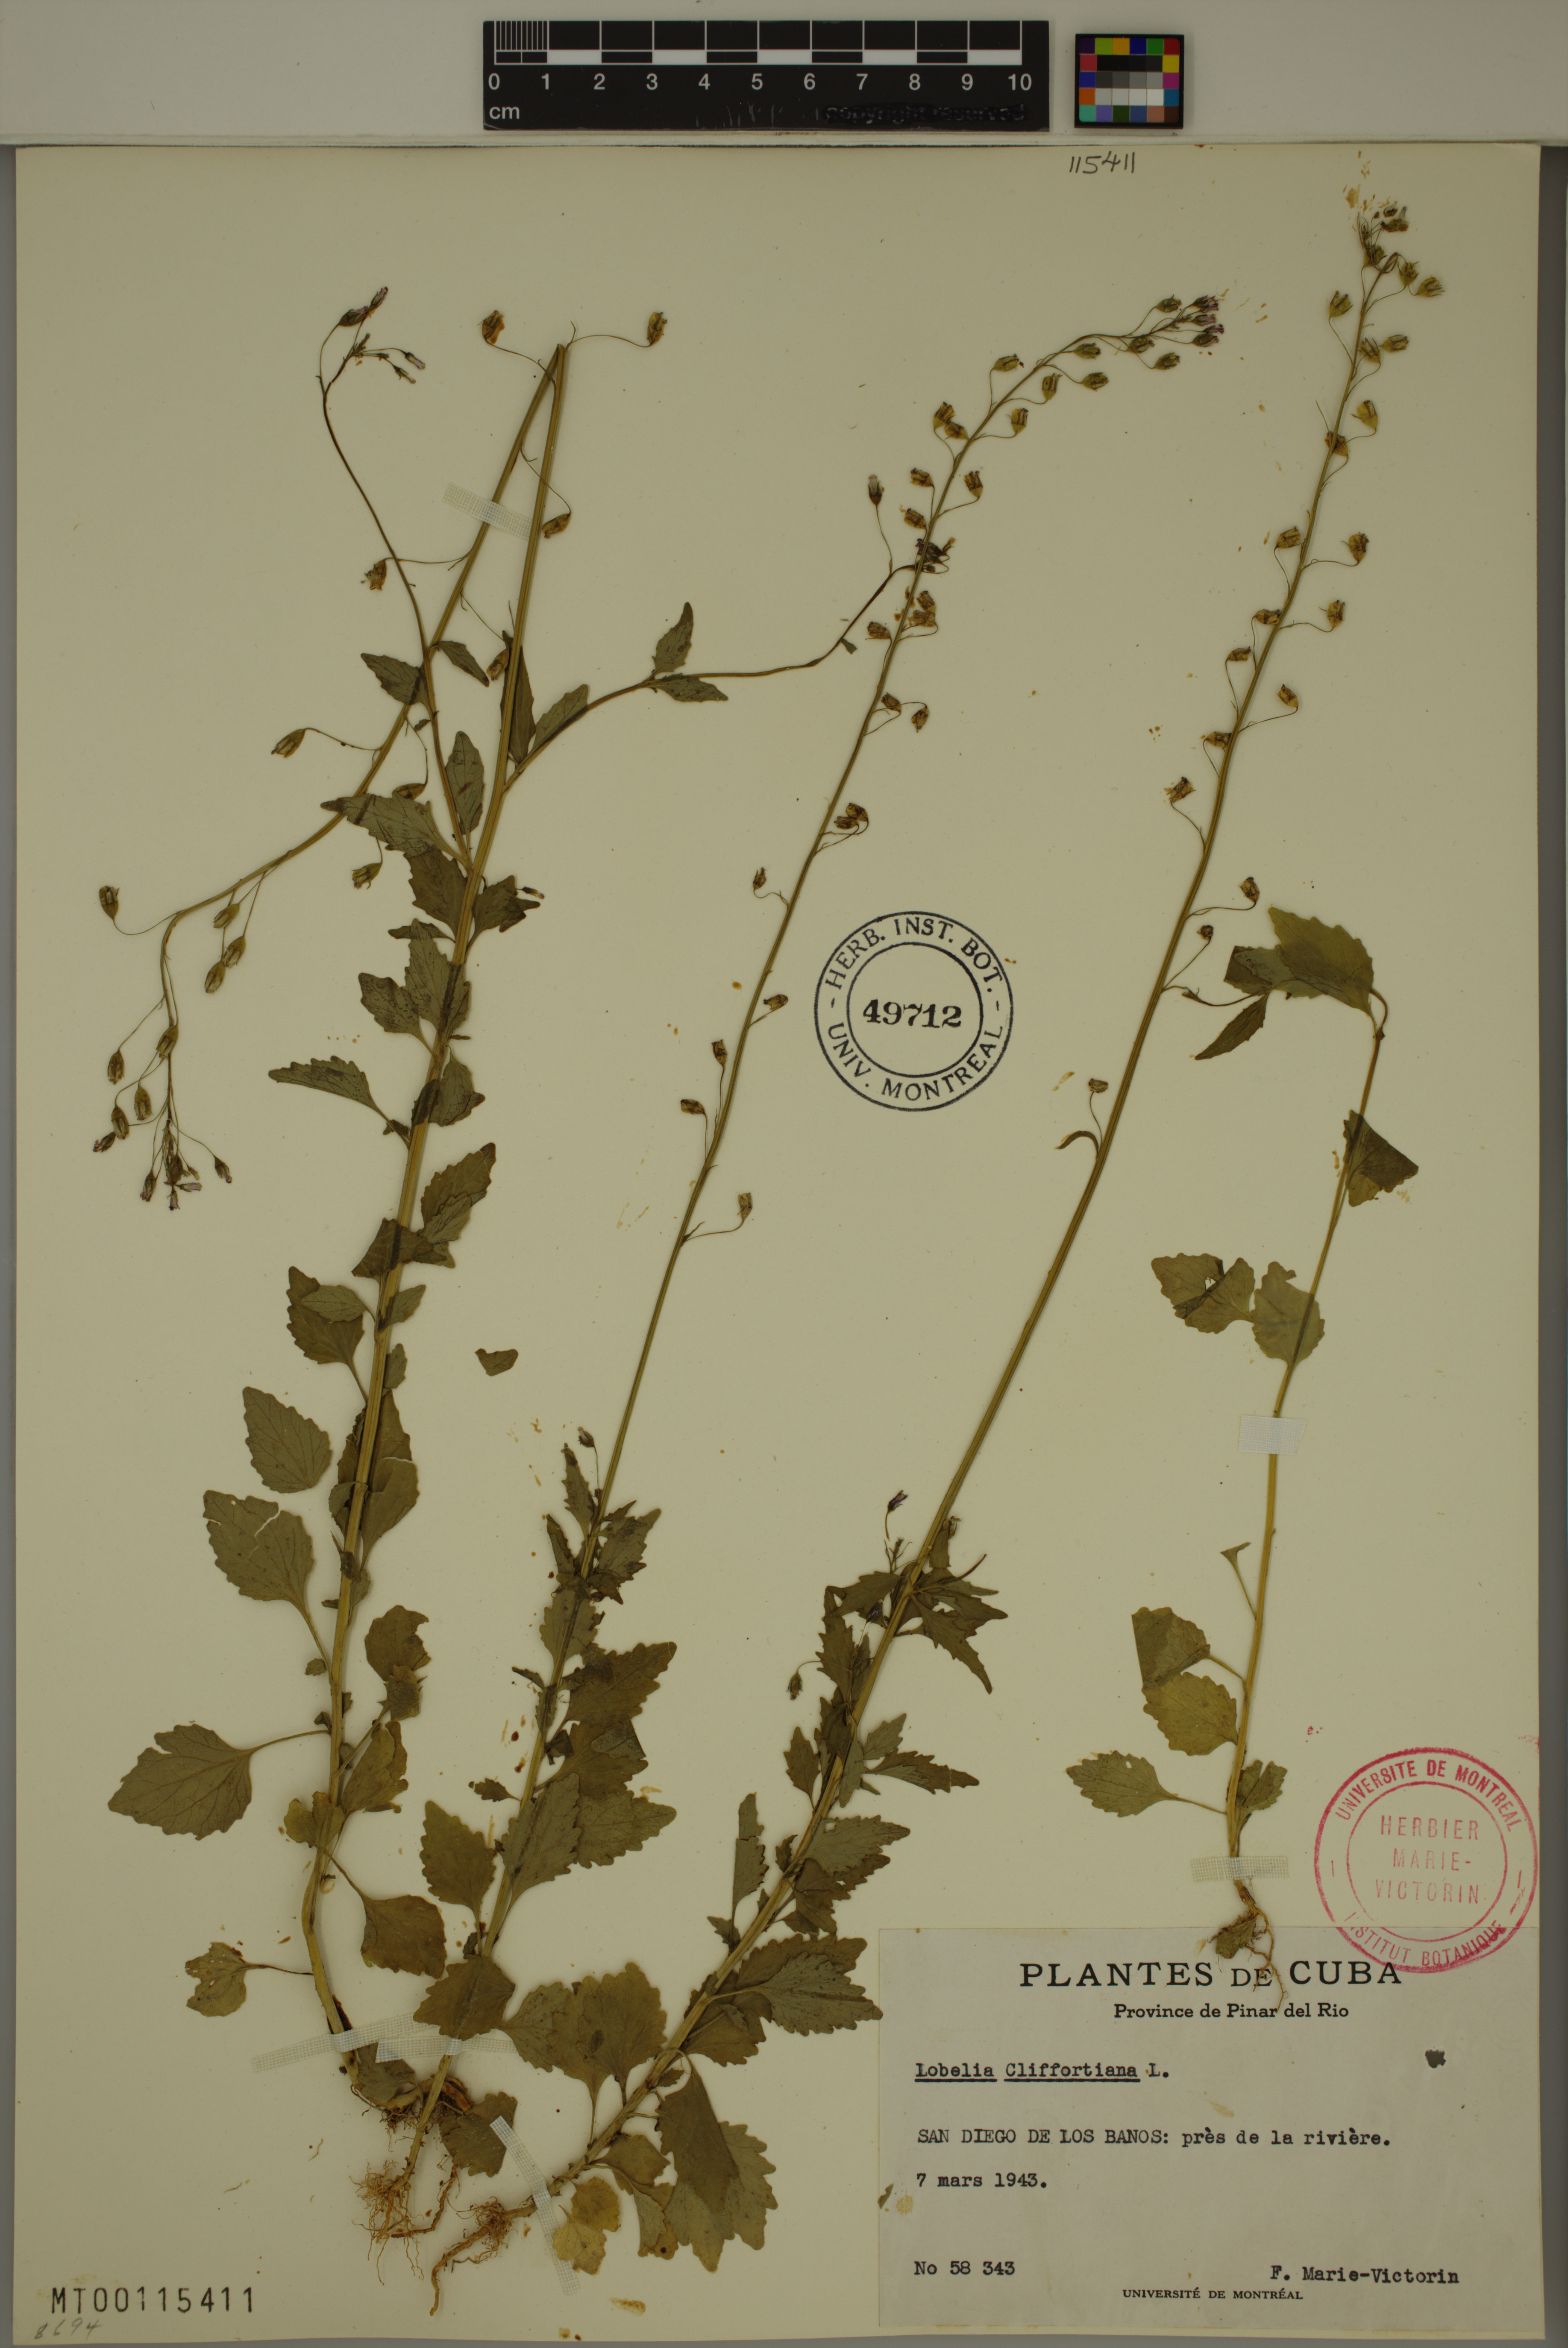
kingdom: Plantae
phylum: Tracheophyta
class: Magnoliopsida
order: Asterales
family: Campanulaceae
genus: Lobelia
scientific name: Lobelia cliffortiana
